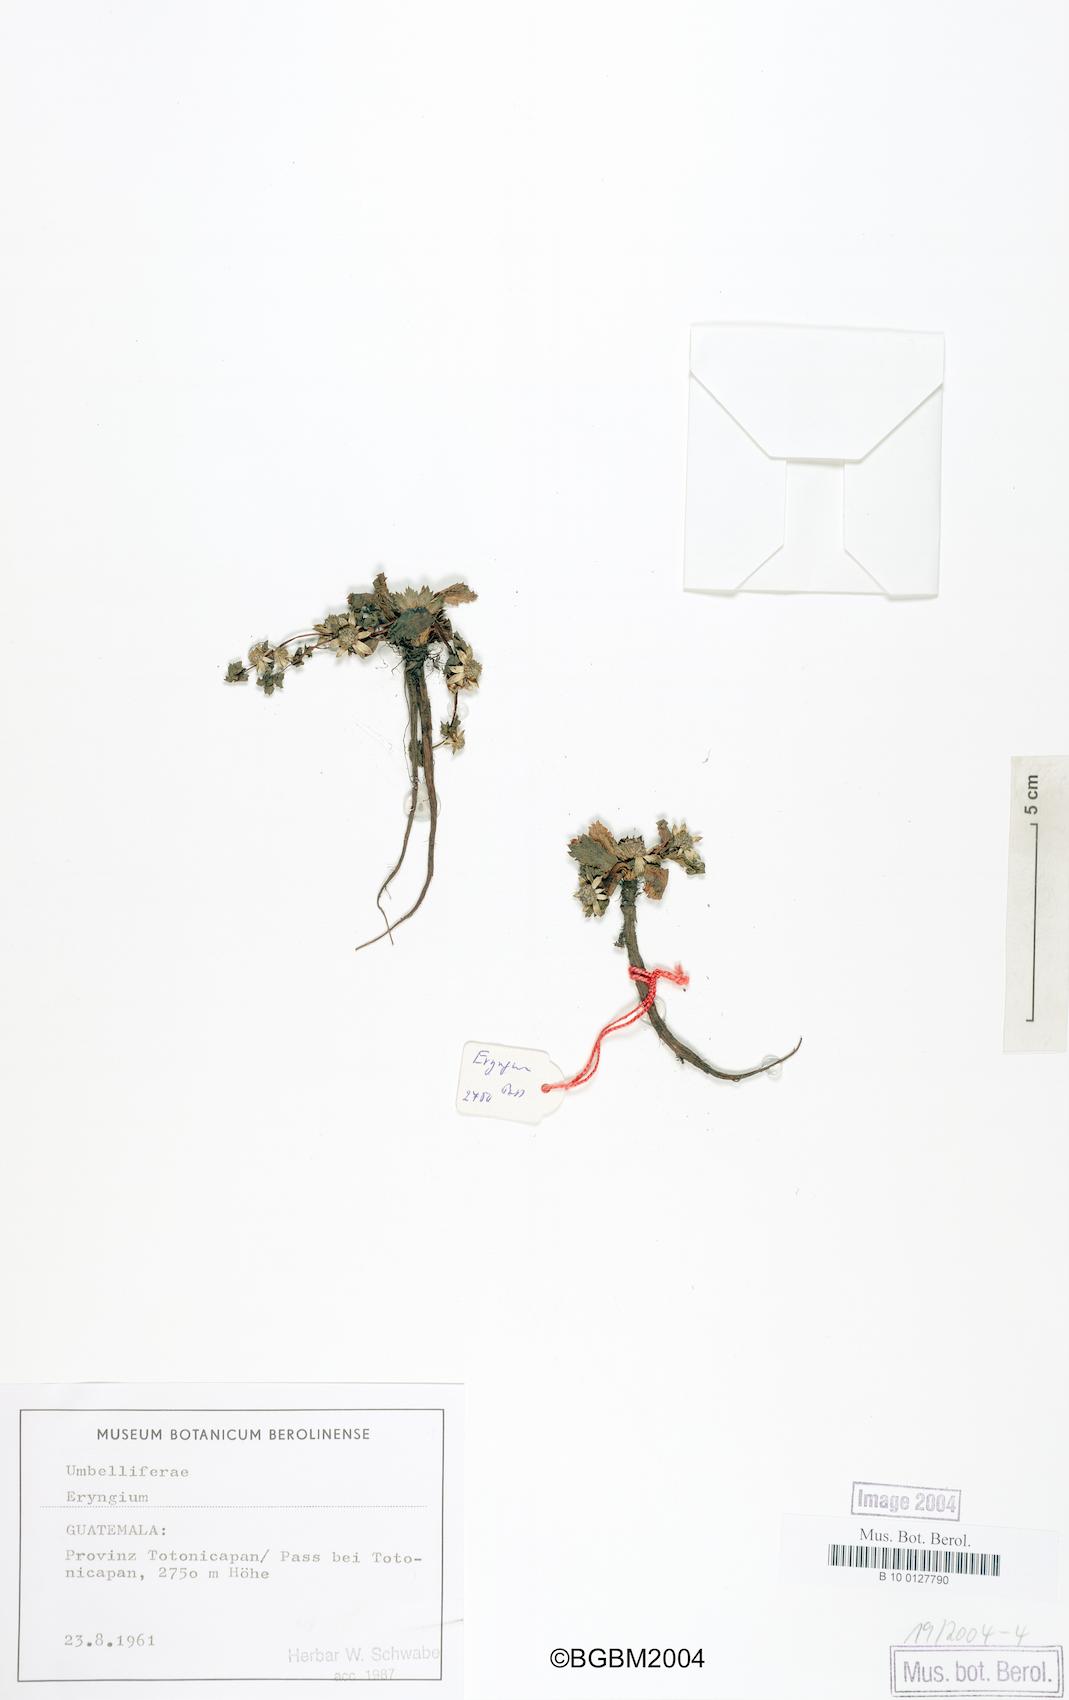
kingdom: Plantae
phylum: Tracheophyta
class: Magnoliopsida
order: Apiales
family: Apiaceae
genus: Eryngium
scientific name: Eryngium
